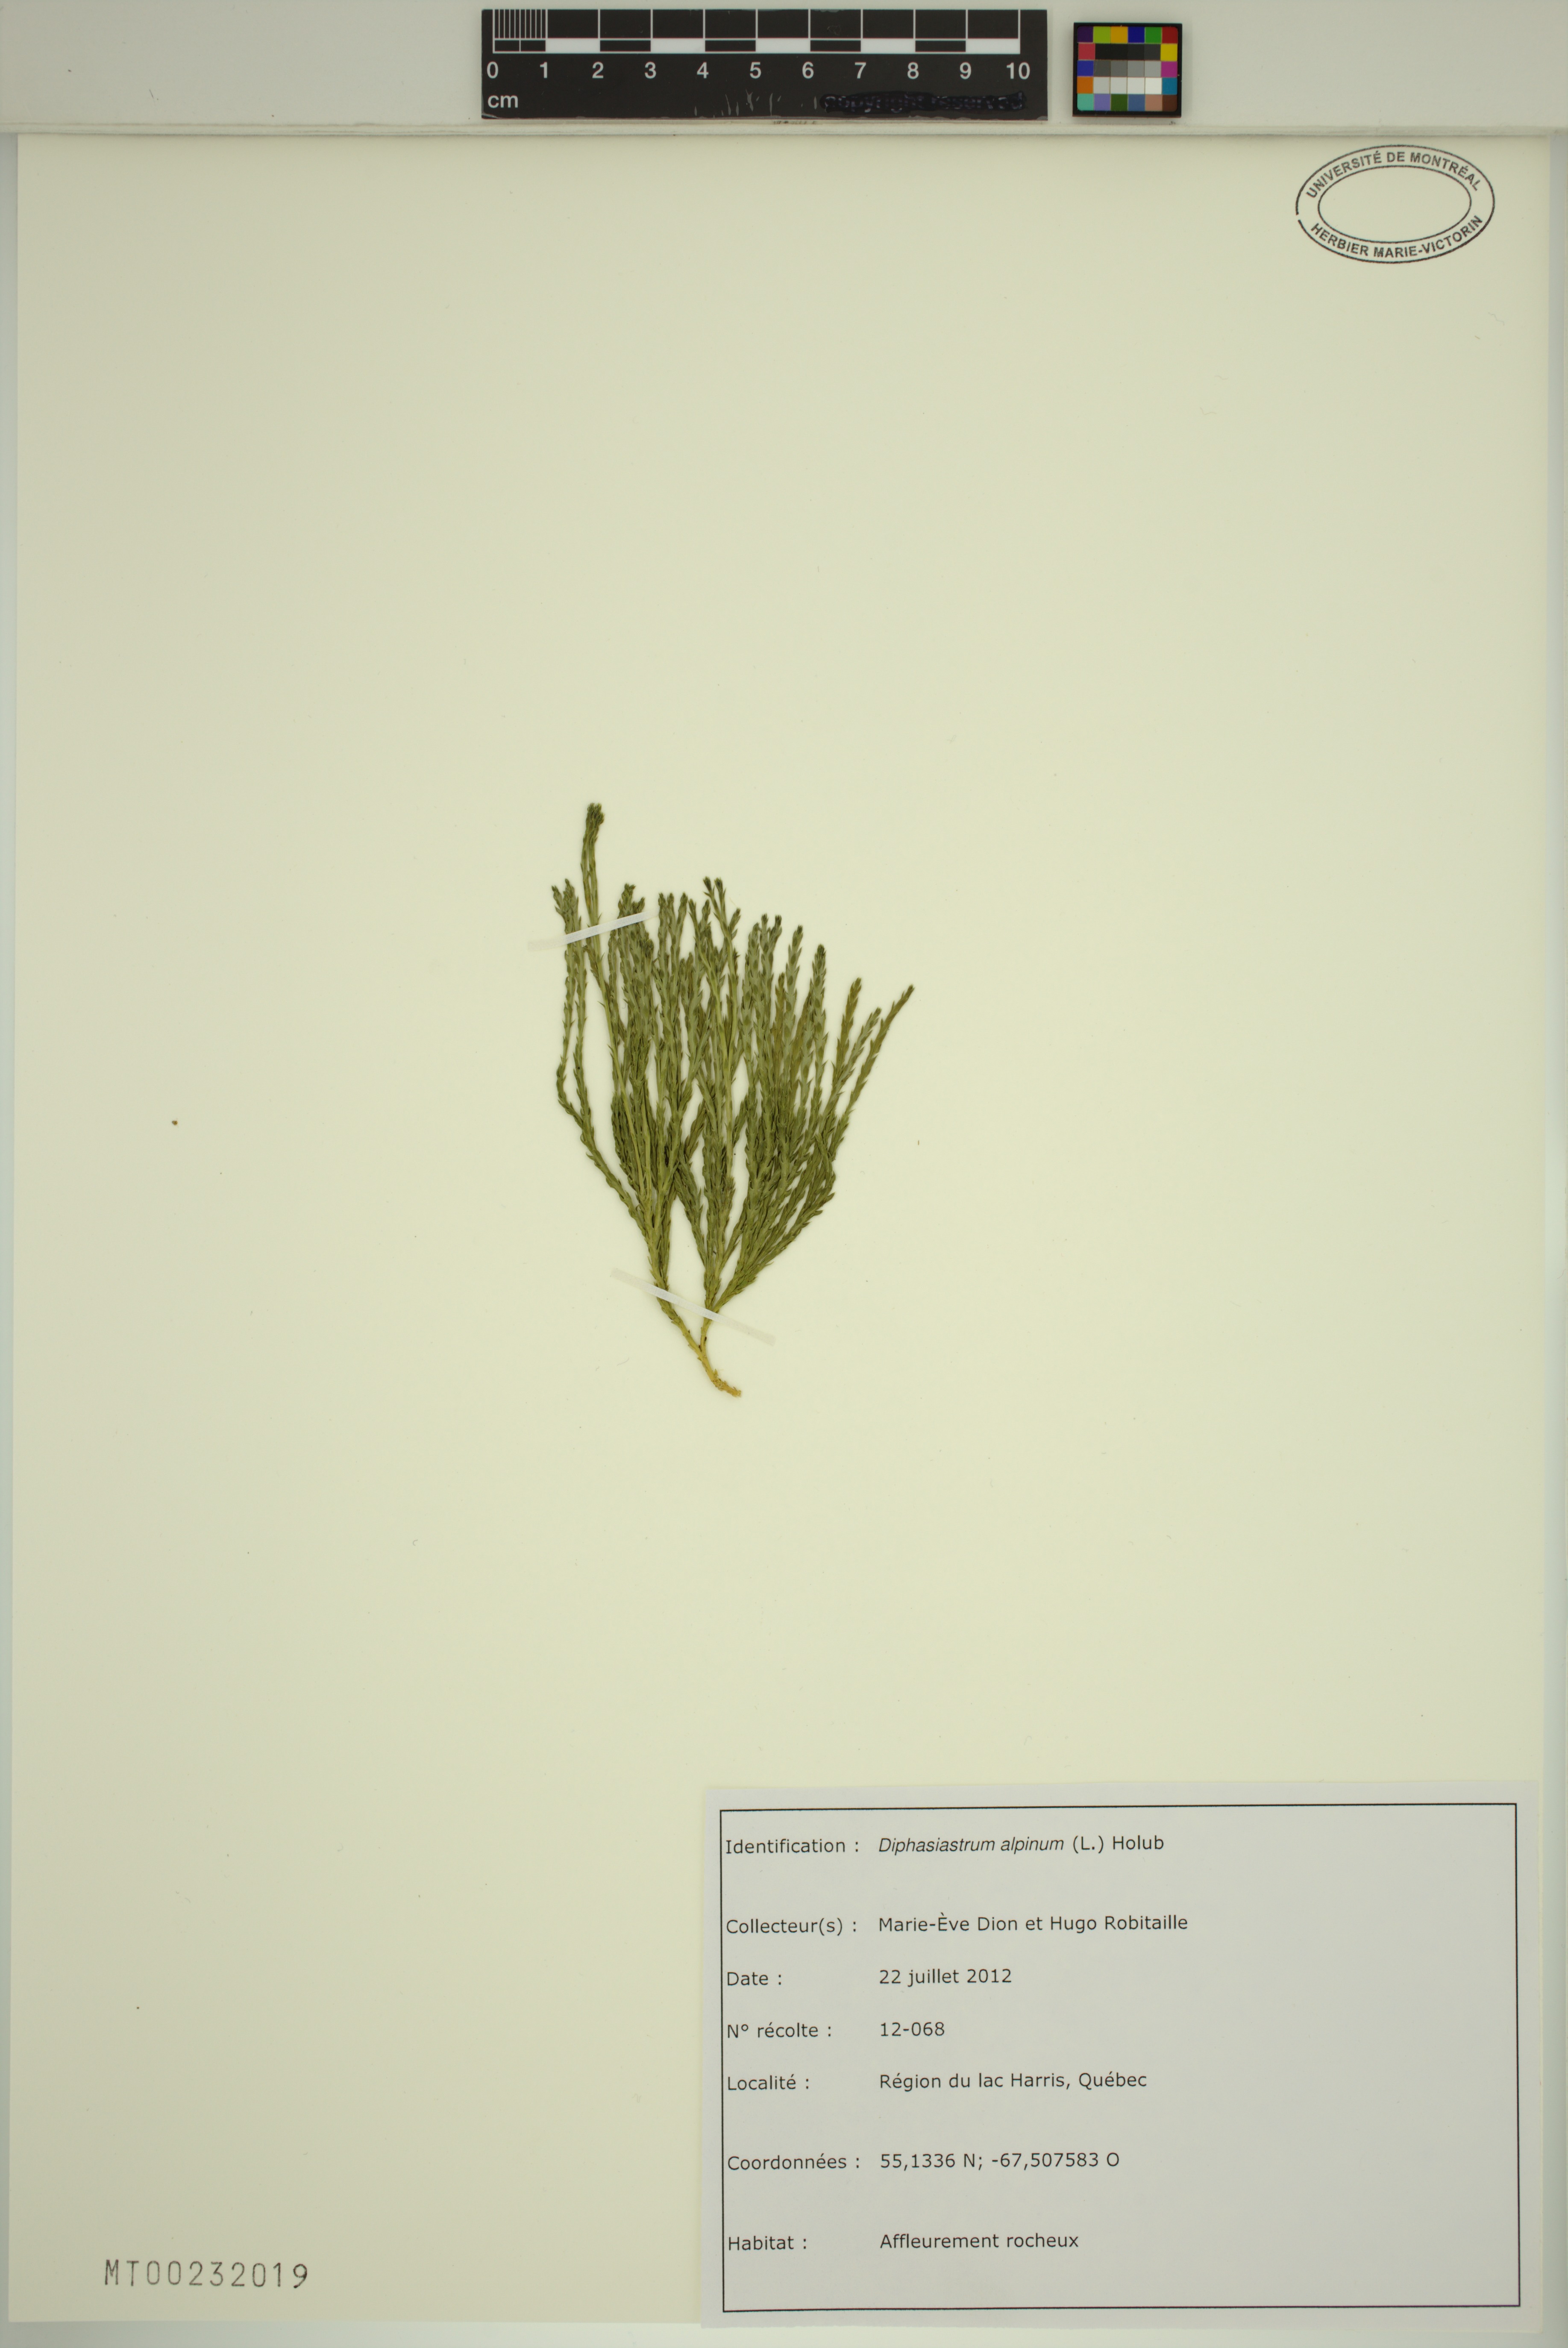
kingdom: Plantae
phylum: Tracheophyta
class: Lycopodiopsida
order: Lycopodiales
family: Lycopodiaceae
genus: Diphasiastrum
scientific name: Diphasiastrum alpinum
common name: Alpine clubmoss
